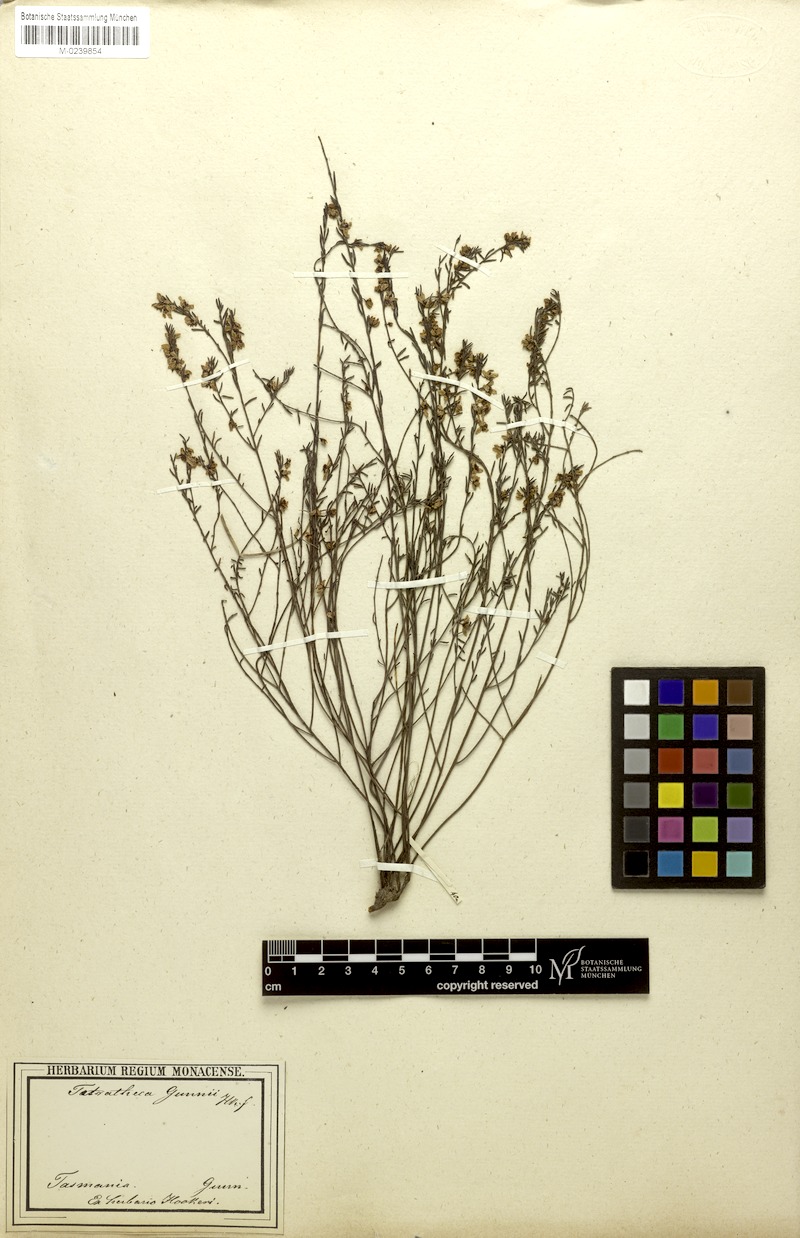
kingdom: Plantae
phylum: Tracheophyta
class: Magnoliopsida
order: Oxalidales
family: Elaeocarpaceae
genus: Tetratheca
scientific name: Tetratheca gunnii
